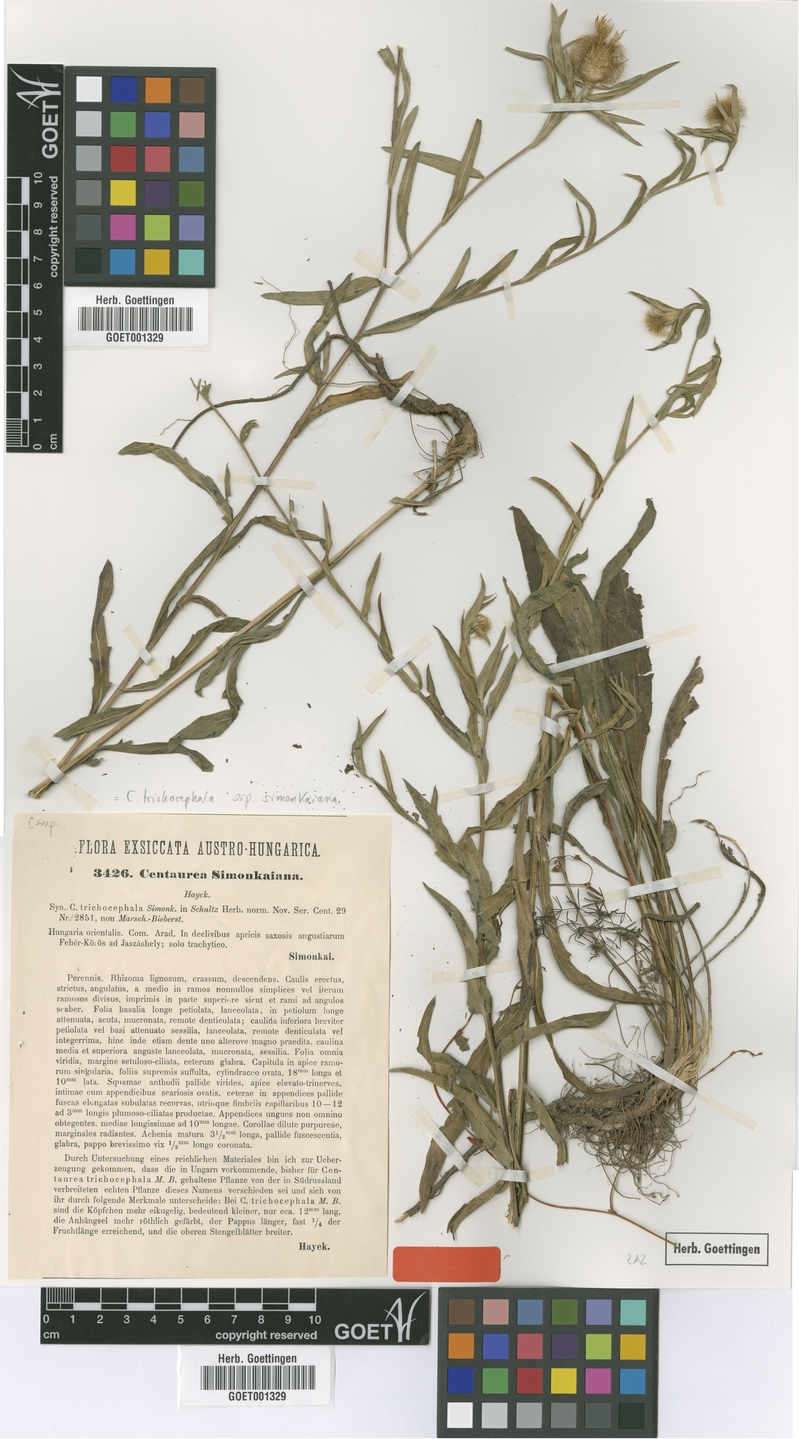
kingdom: Plantae
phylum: Tracheophyta
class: Magnoliopsida
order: Asterales
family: Asteraceae
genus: Centaurea
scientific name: Centaurea simonkaiana
